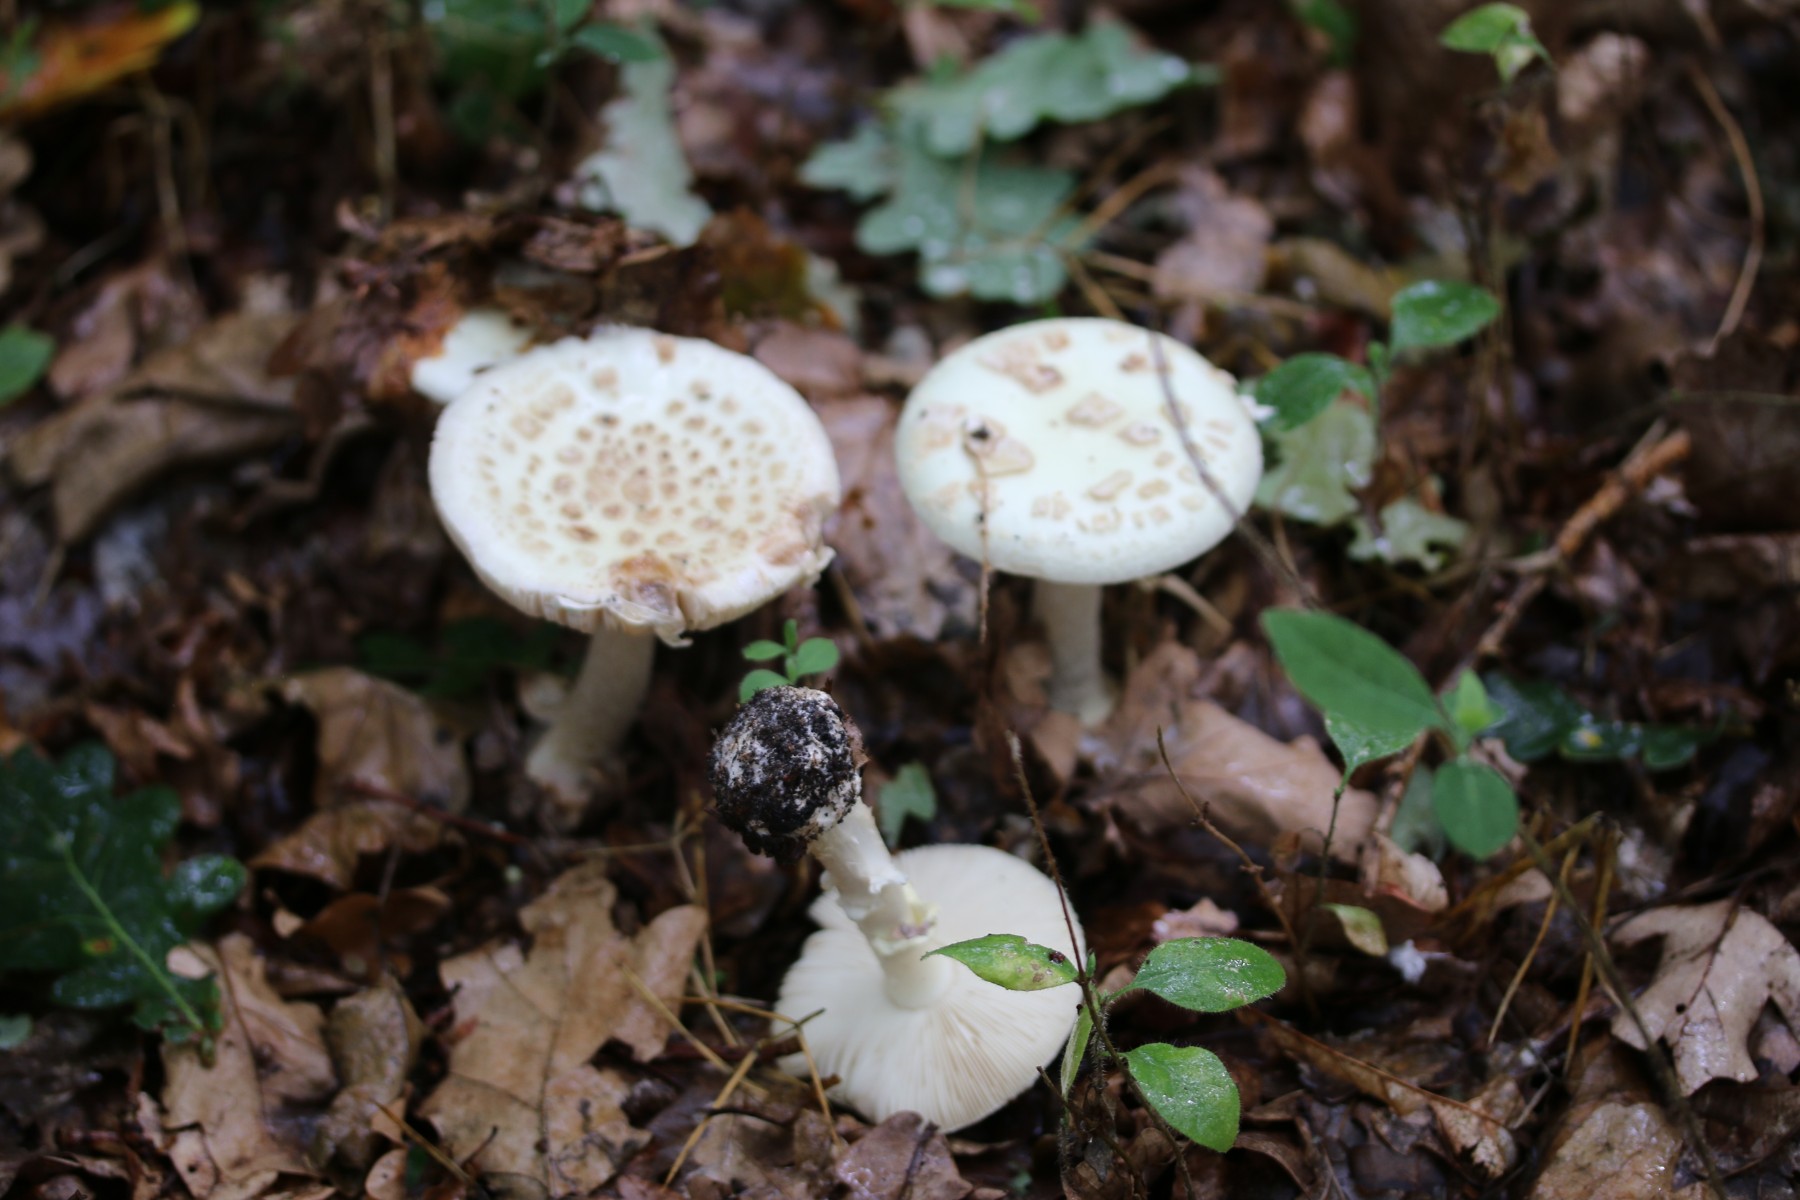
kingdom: Fungi
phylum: Basidiomycota
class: Agaricomycetes
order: Agaricales
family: Amanitaceae
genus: Amanita
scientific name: Amanita citrina
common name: False death-cap
